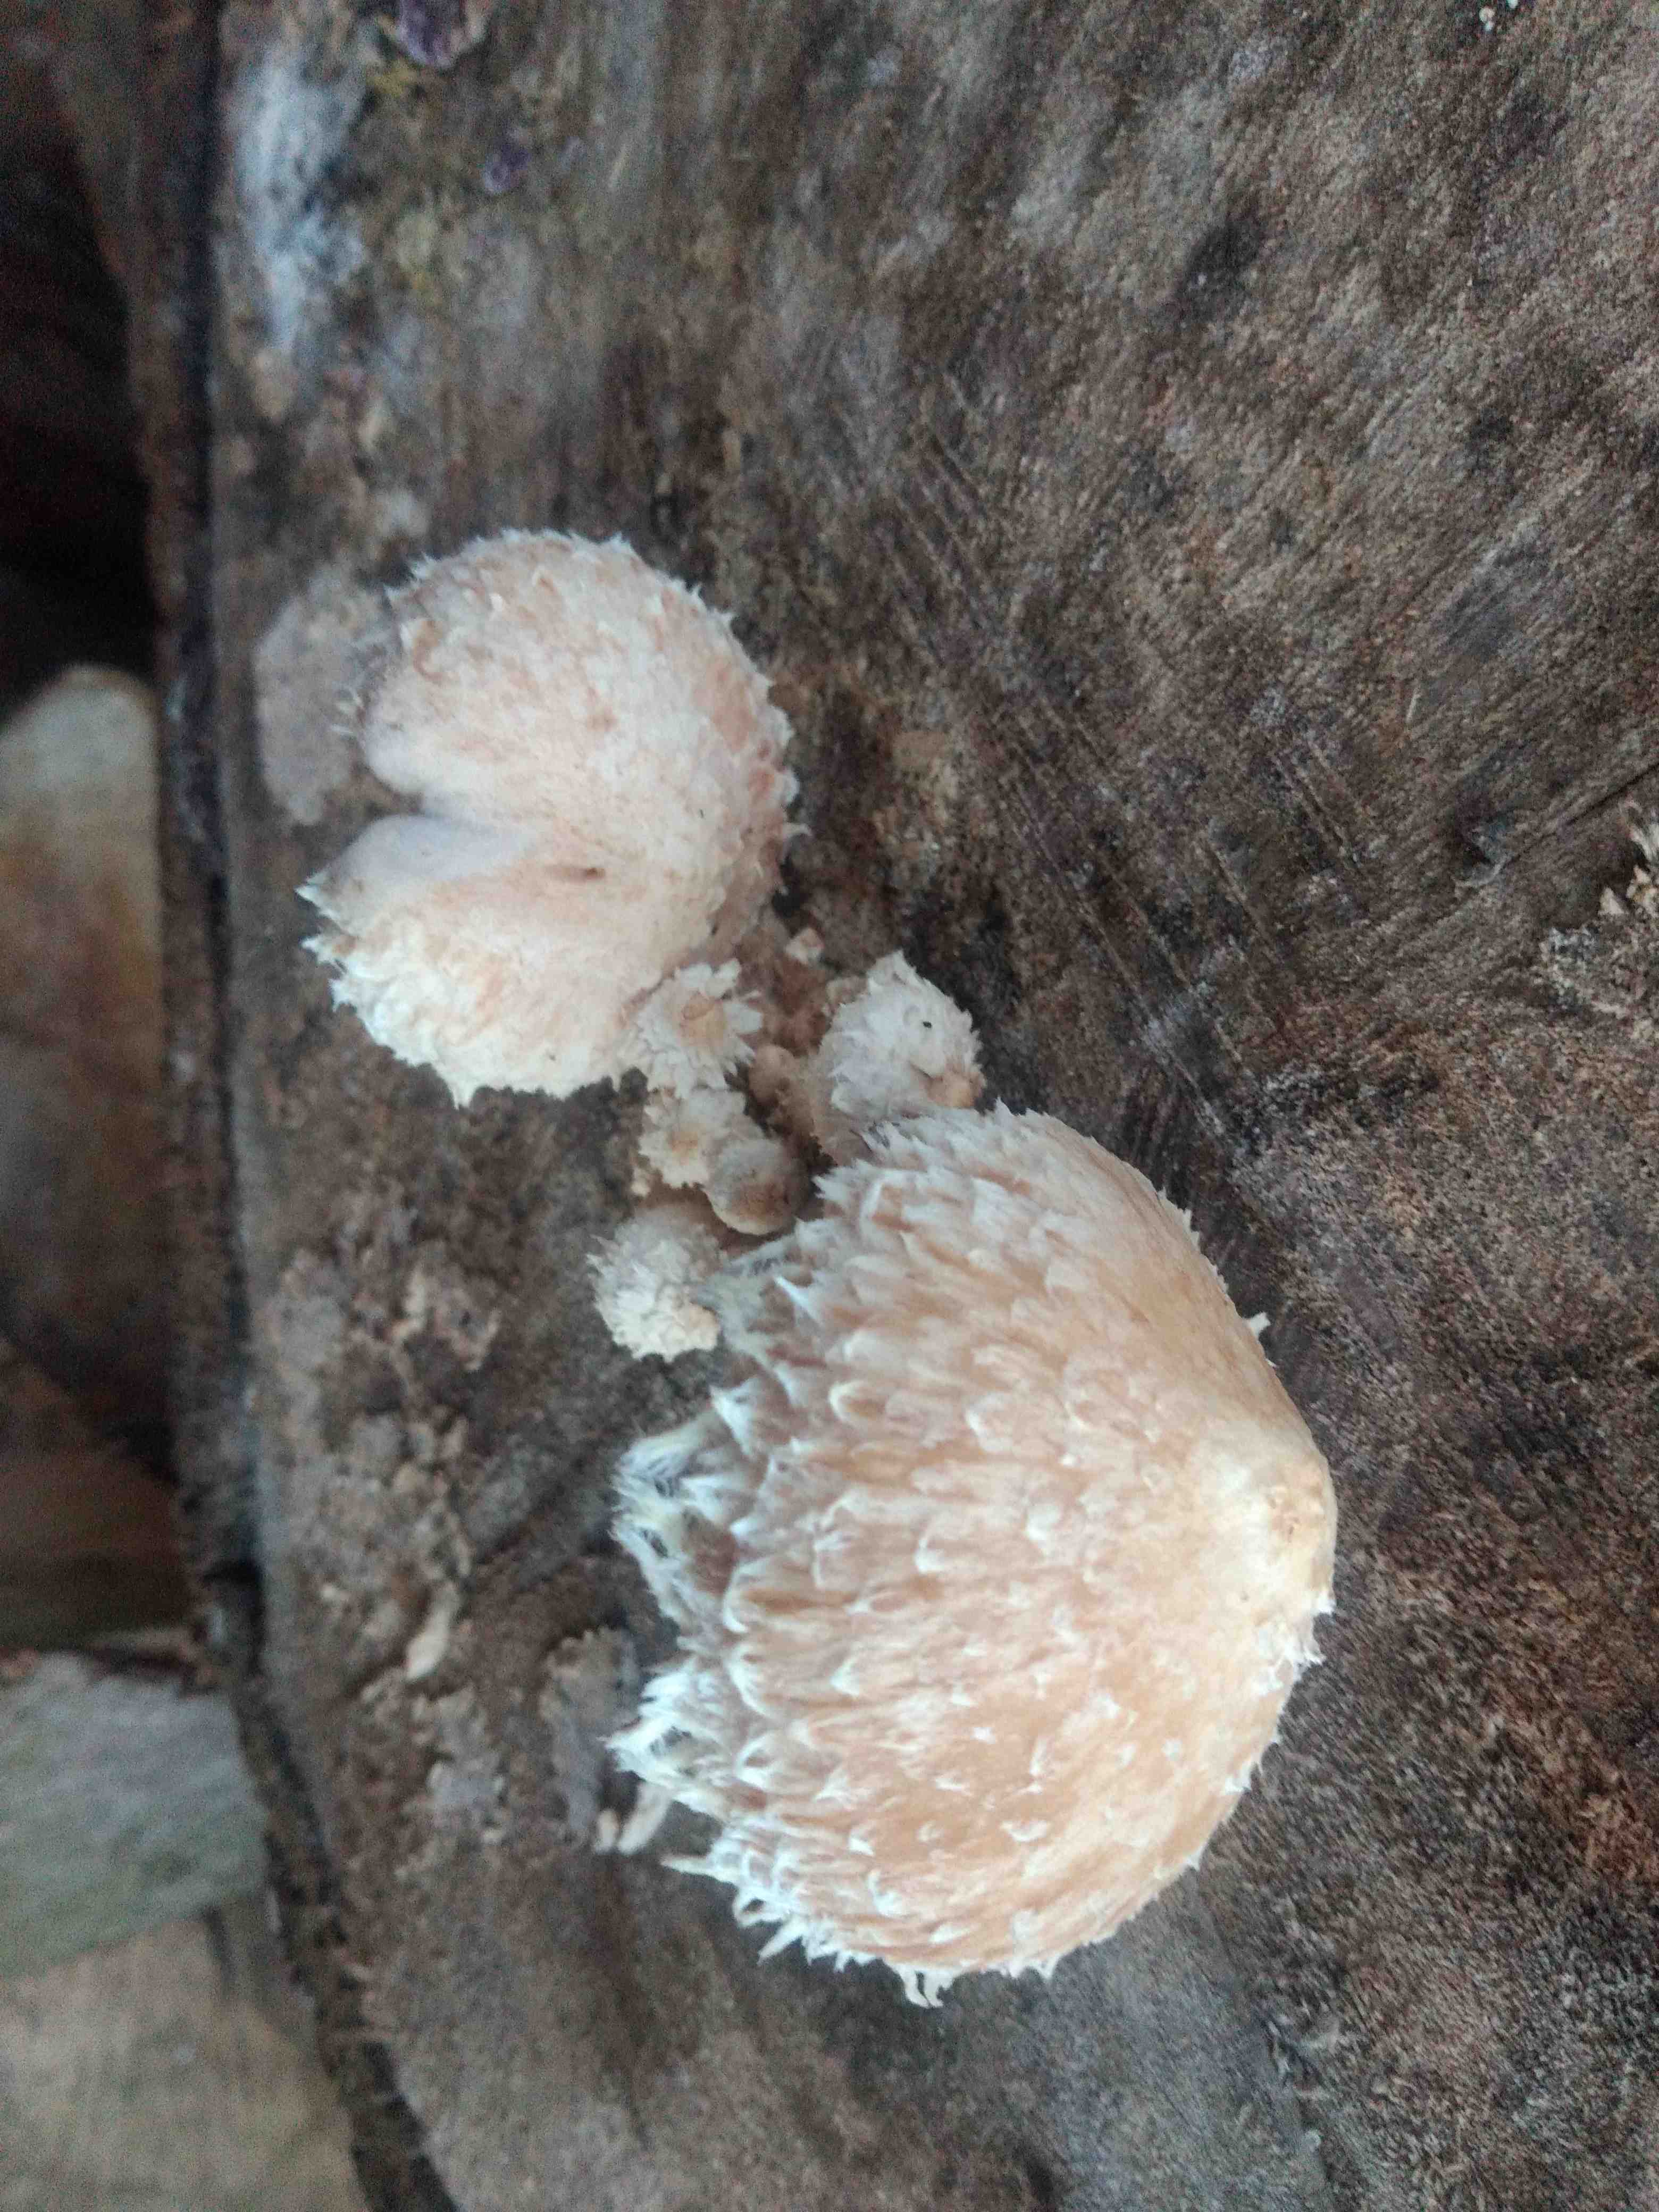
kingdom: Fungi
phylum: Basidiomycota
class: Agaricomycetes
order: Agaricales
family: Strophariaceae
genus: Pholiota
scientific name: Pholiota populnea
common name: poppel-kæmpeskælhat
